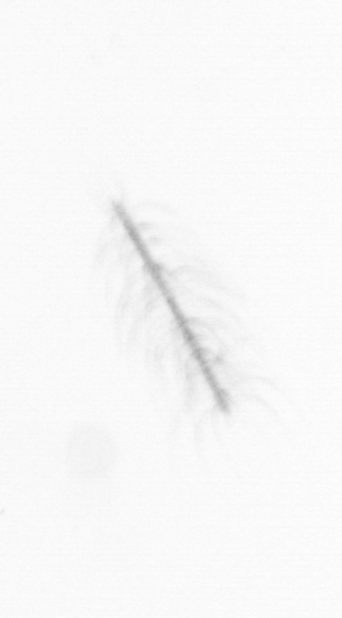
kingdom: Chromista
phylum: Ochrophyta
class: Bacillariophyceae
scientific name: Bacillariophyceae
